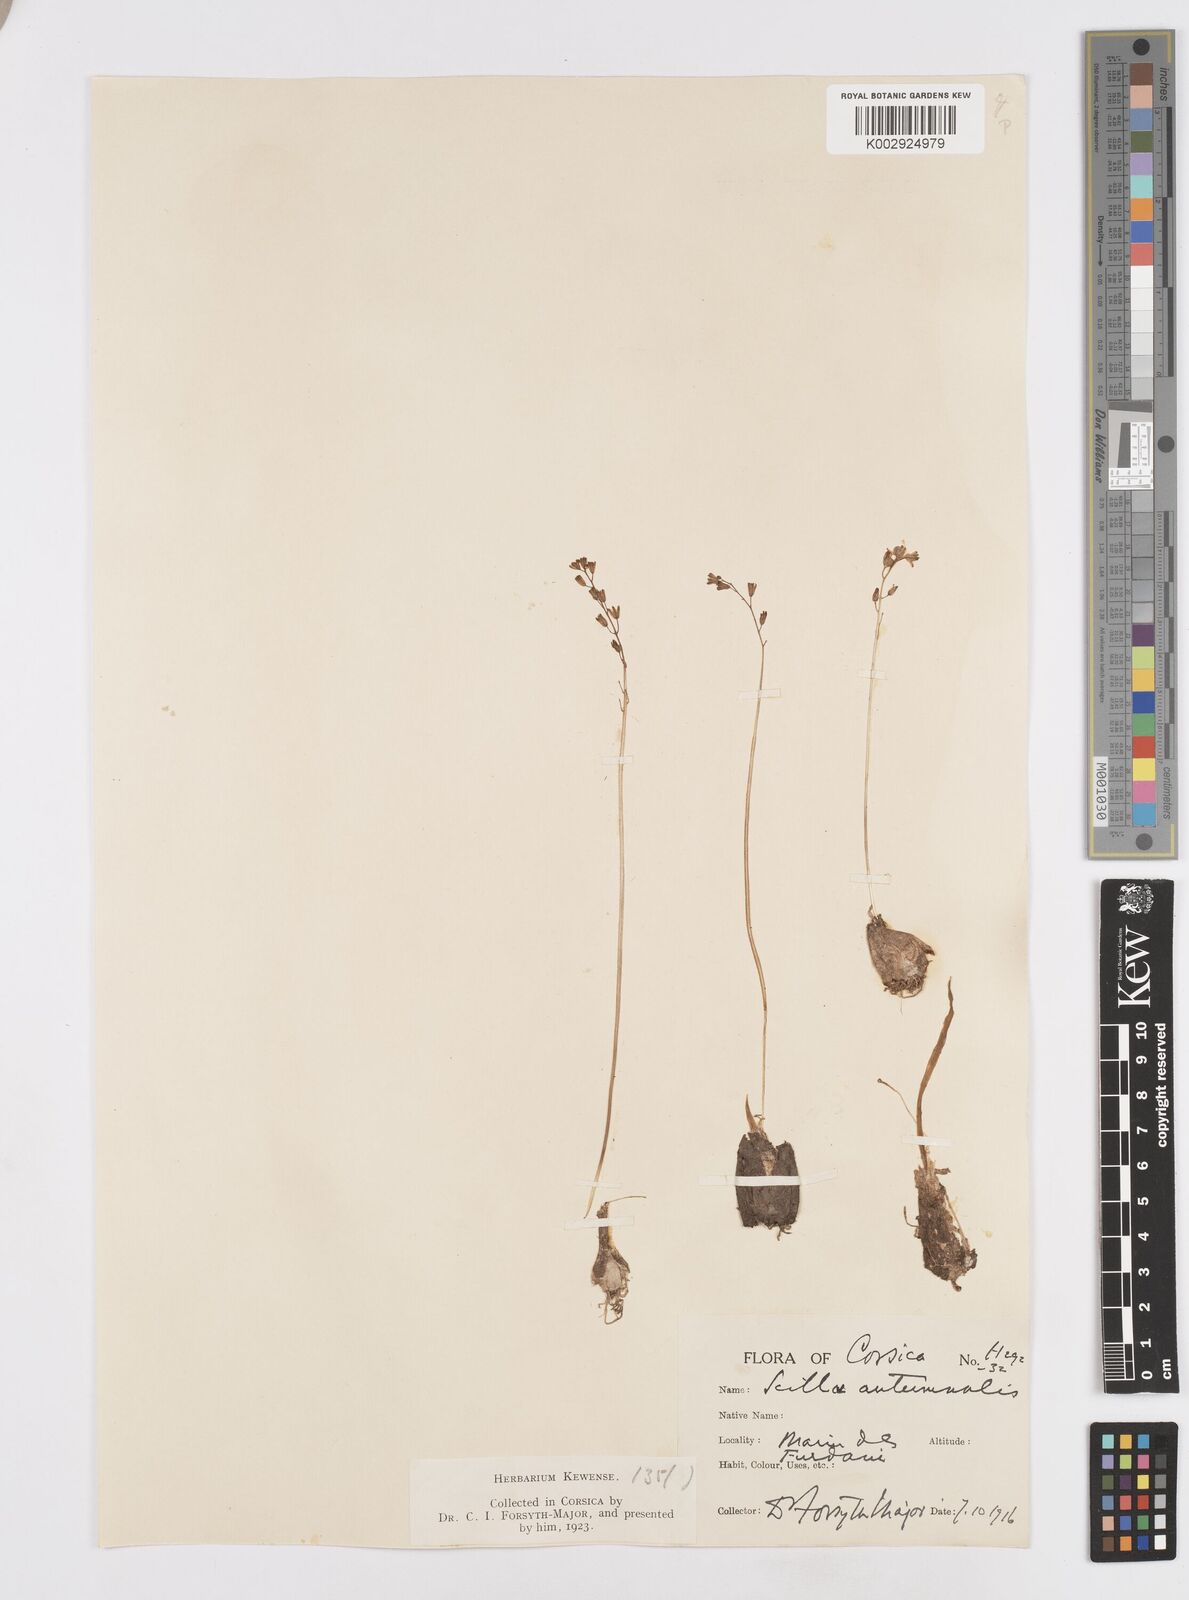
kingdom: Plantae
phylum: Tracheophyta
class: Liliopsida
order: Asparagales
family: Asparagaceae
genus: Prospero
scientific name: Prospero autumnale
